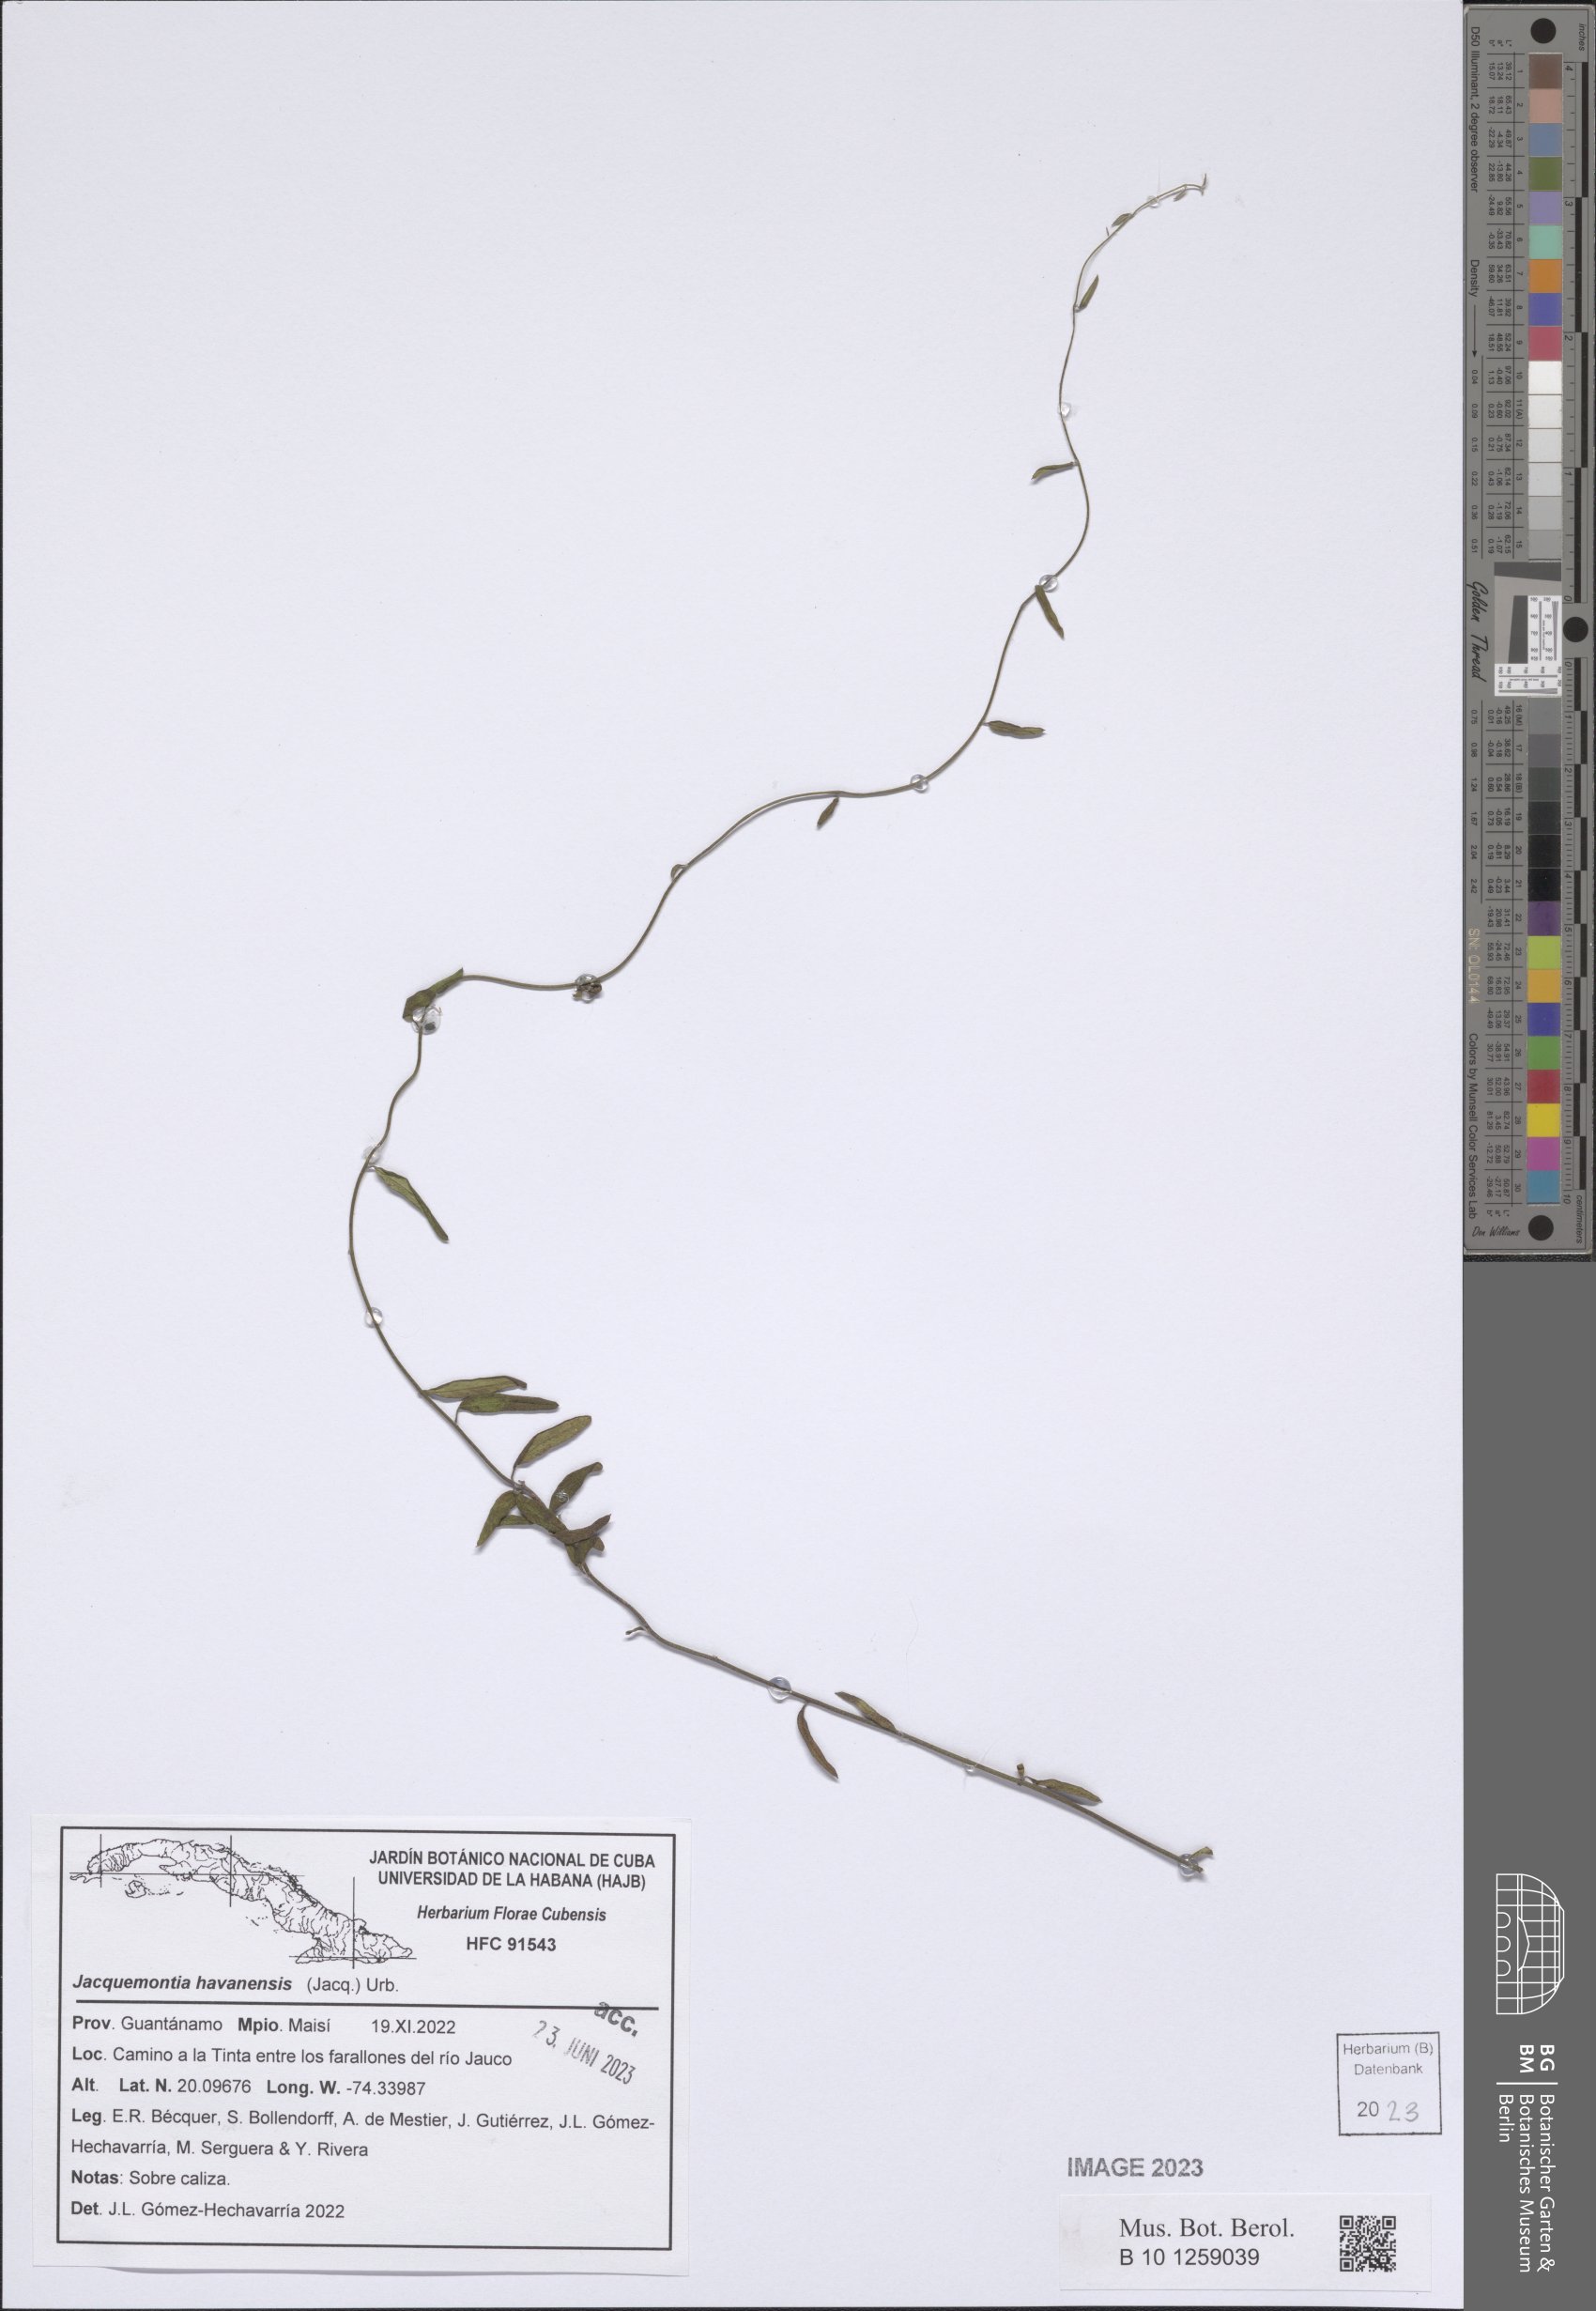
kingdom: Plantae
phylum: Tracheophyta
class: Magnoliopsida
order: Solanales
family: Convolvulaceae
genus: Jacquemontia
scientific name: Jacquemontia havanensis
